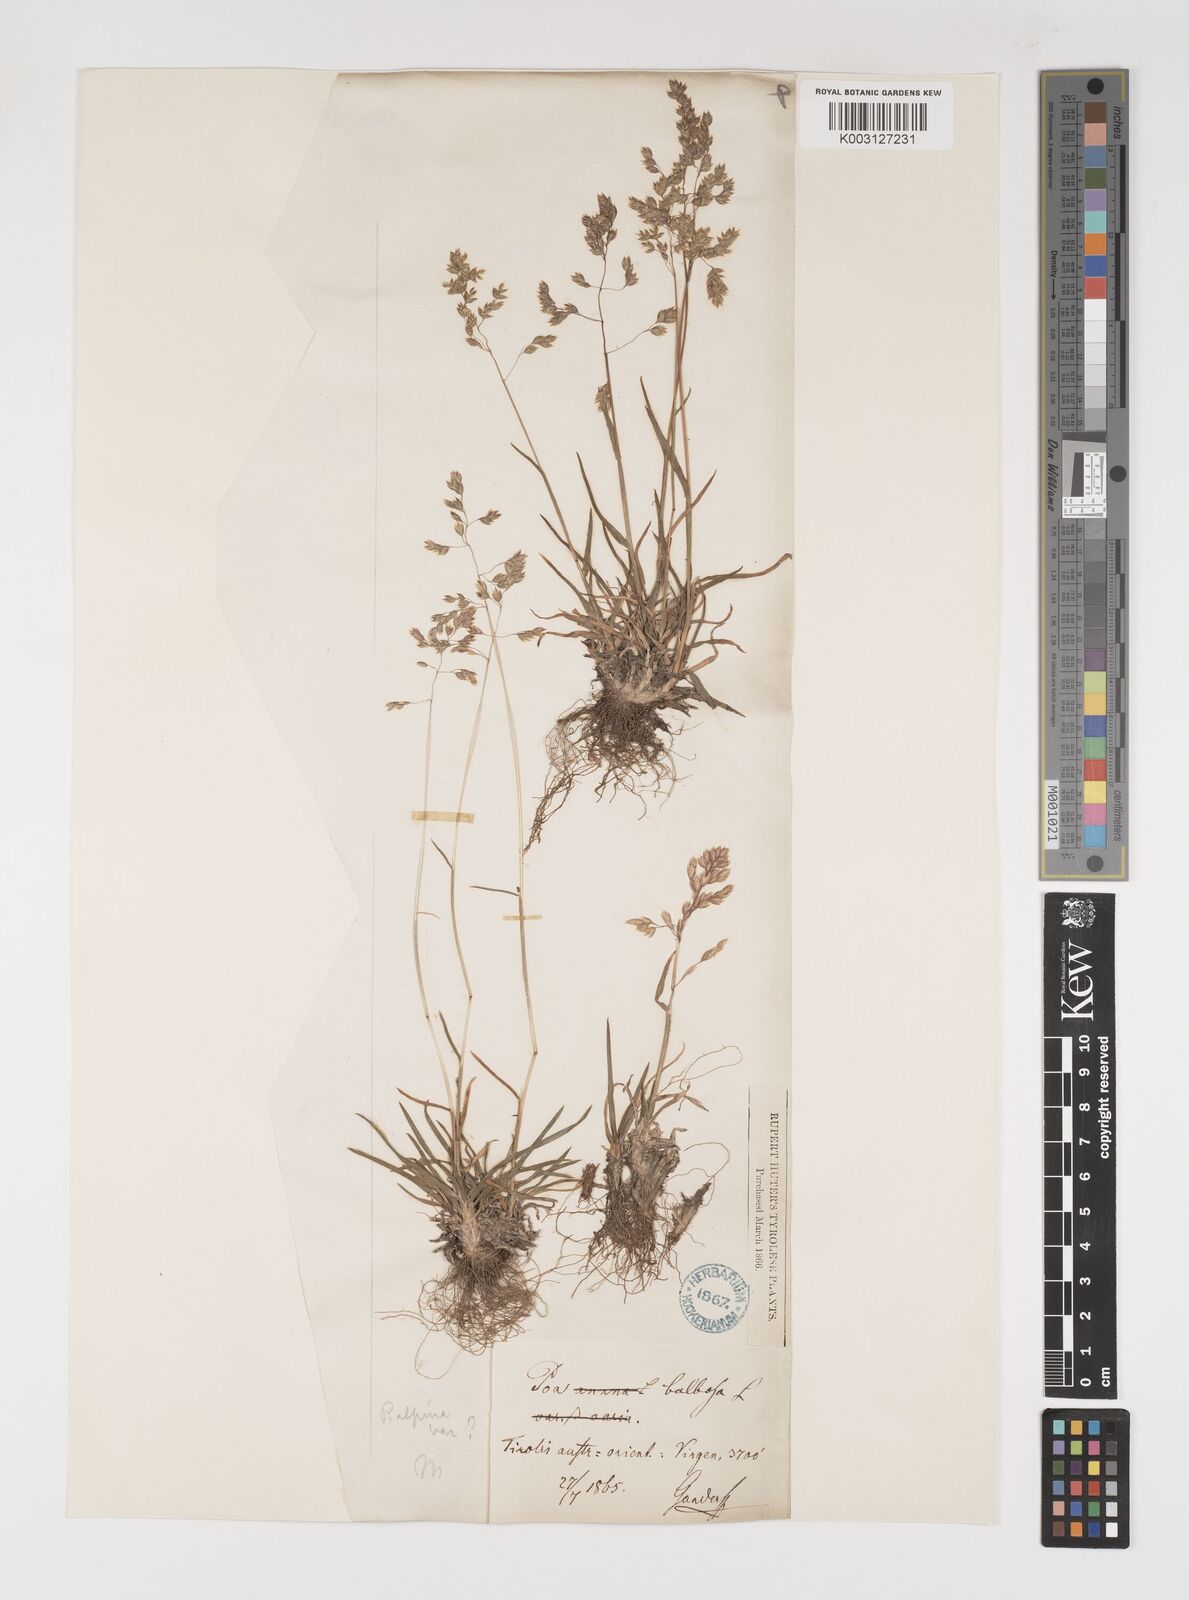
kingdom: Plantae
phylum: Tracheophyta
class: Liliopsida
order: Poales
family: Poaceae
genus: Poa
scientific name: Poa alpina
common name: Alpine bluegrass
